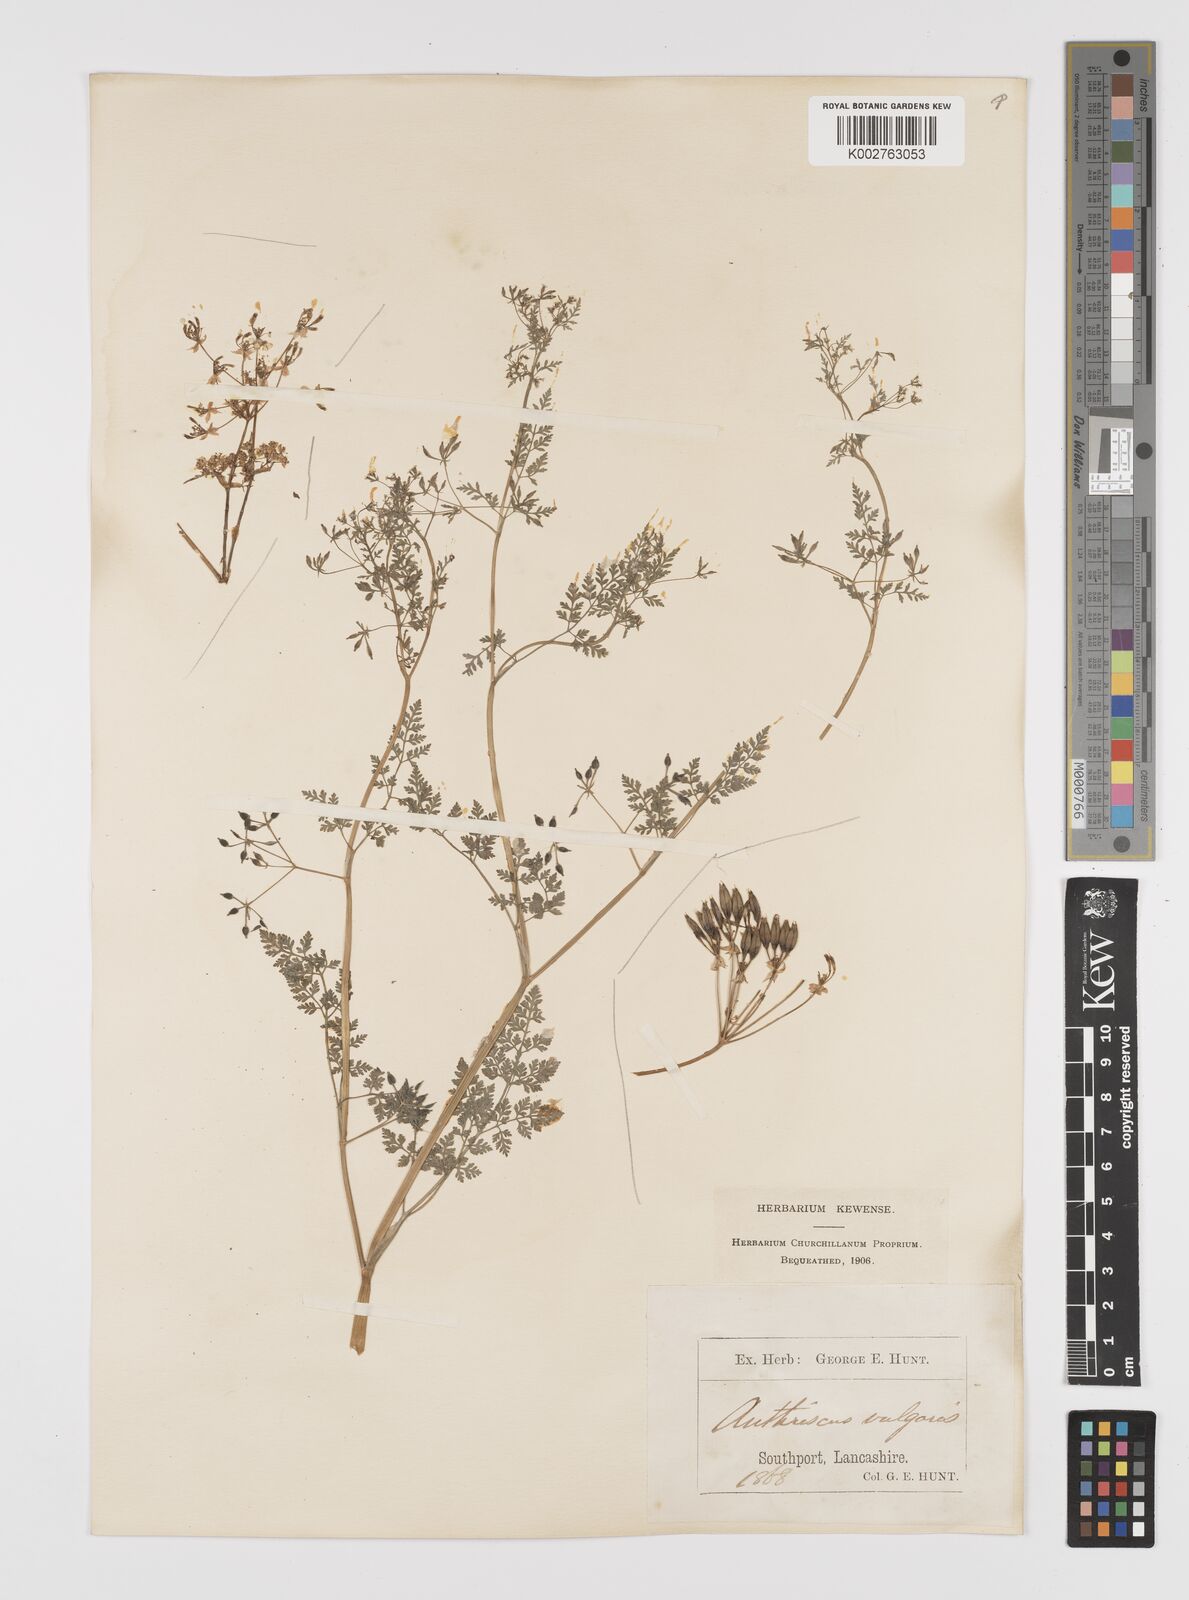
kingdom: Plantae
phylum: Tracheophyta
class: Magnoliopsida
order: Apiales
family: Apiaceae
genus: Anthriscus
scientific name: Anthriscus caucalis
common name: Bur chervil
